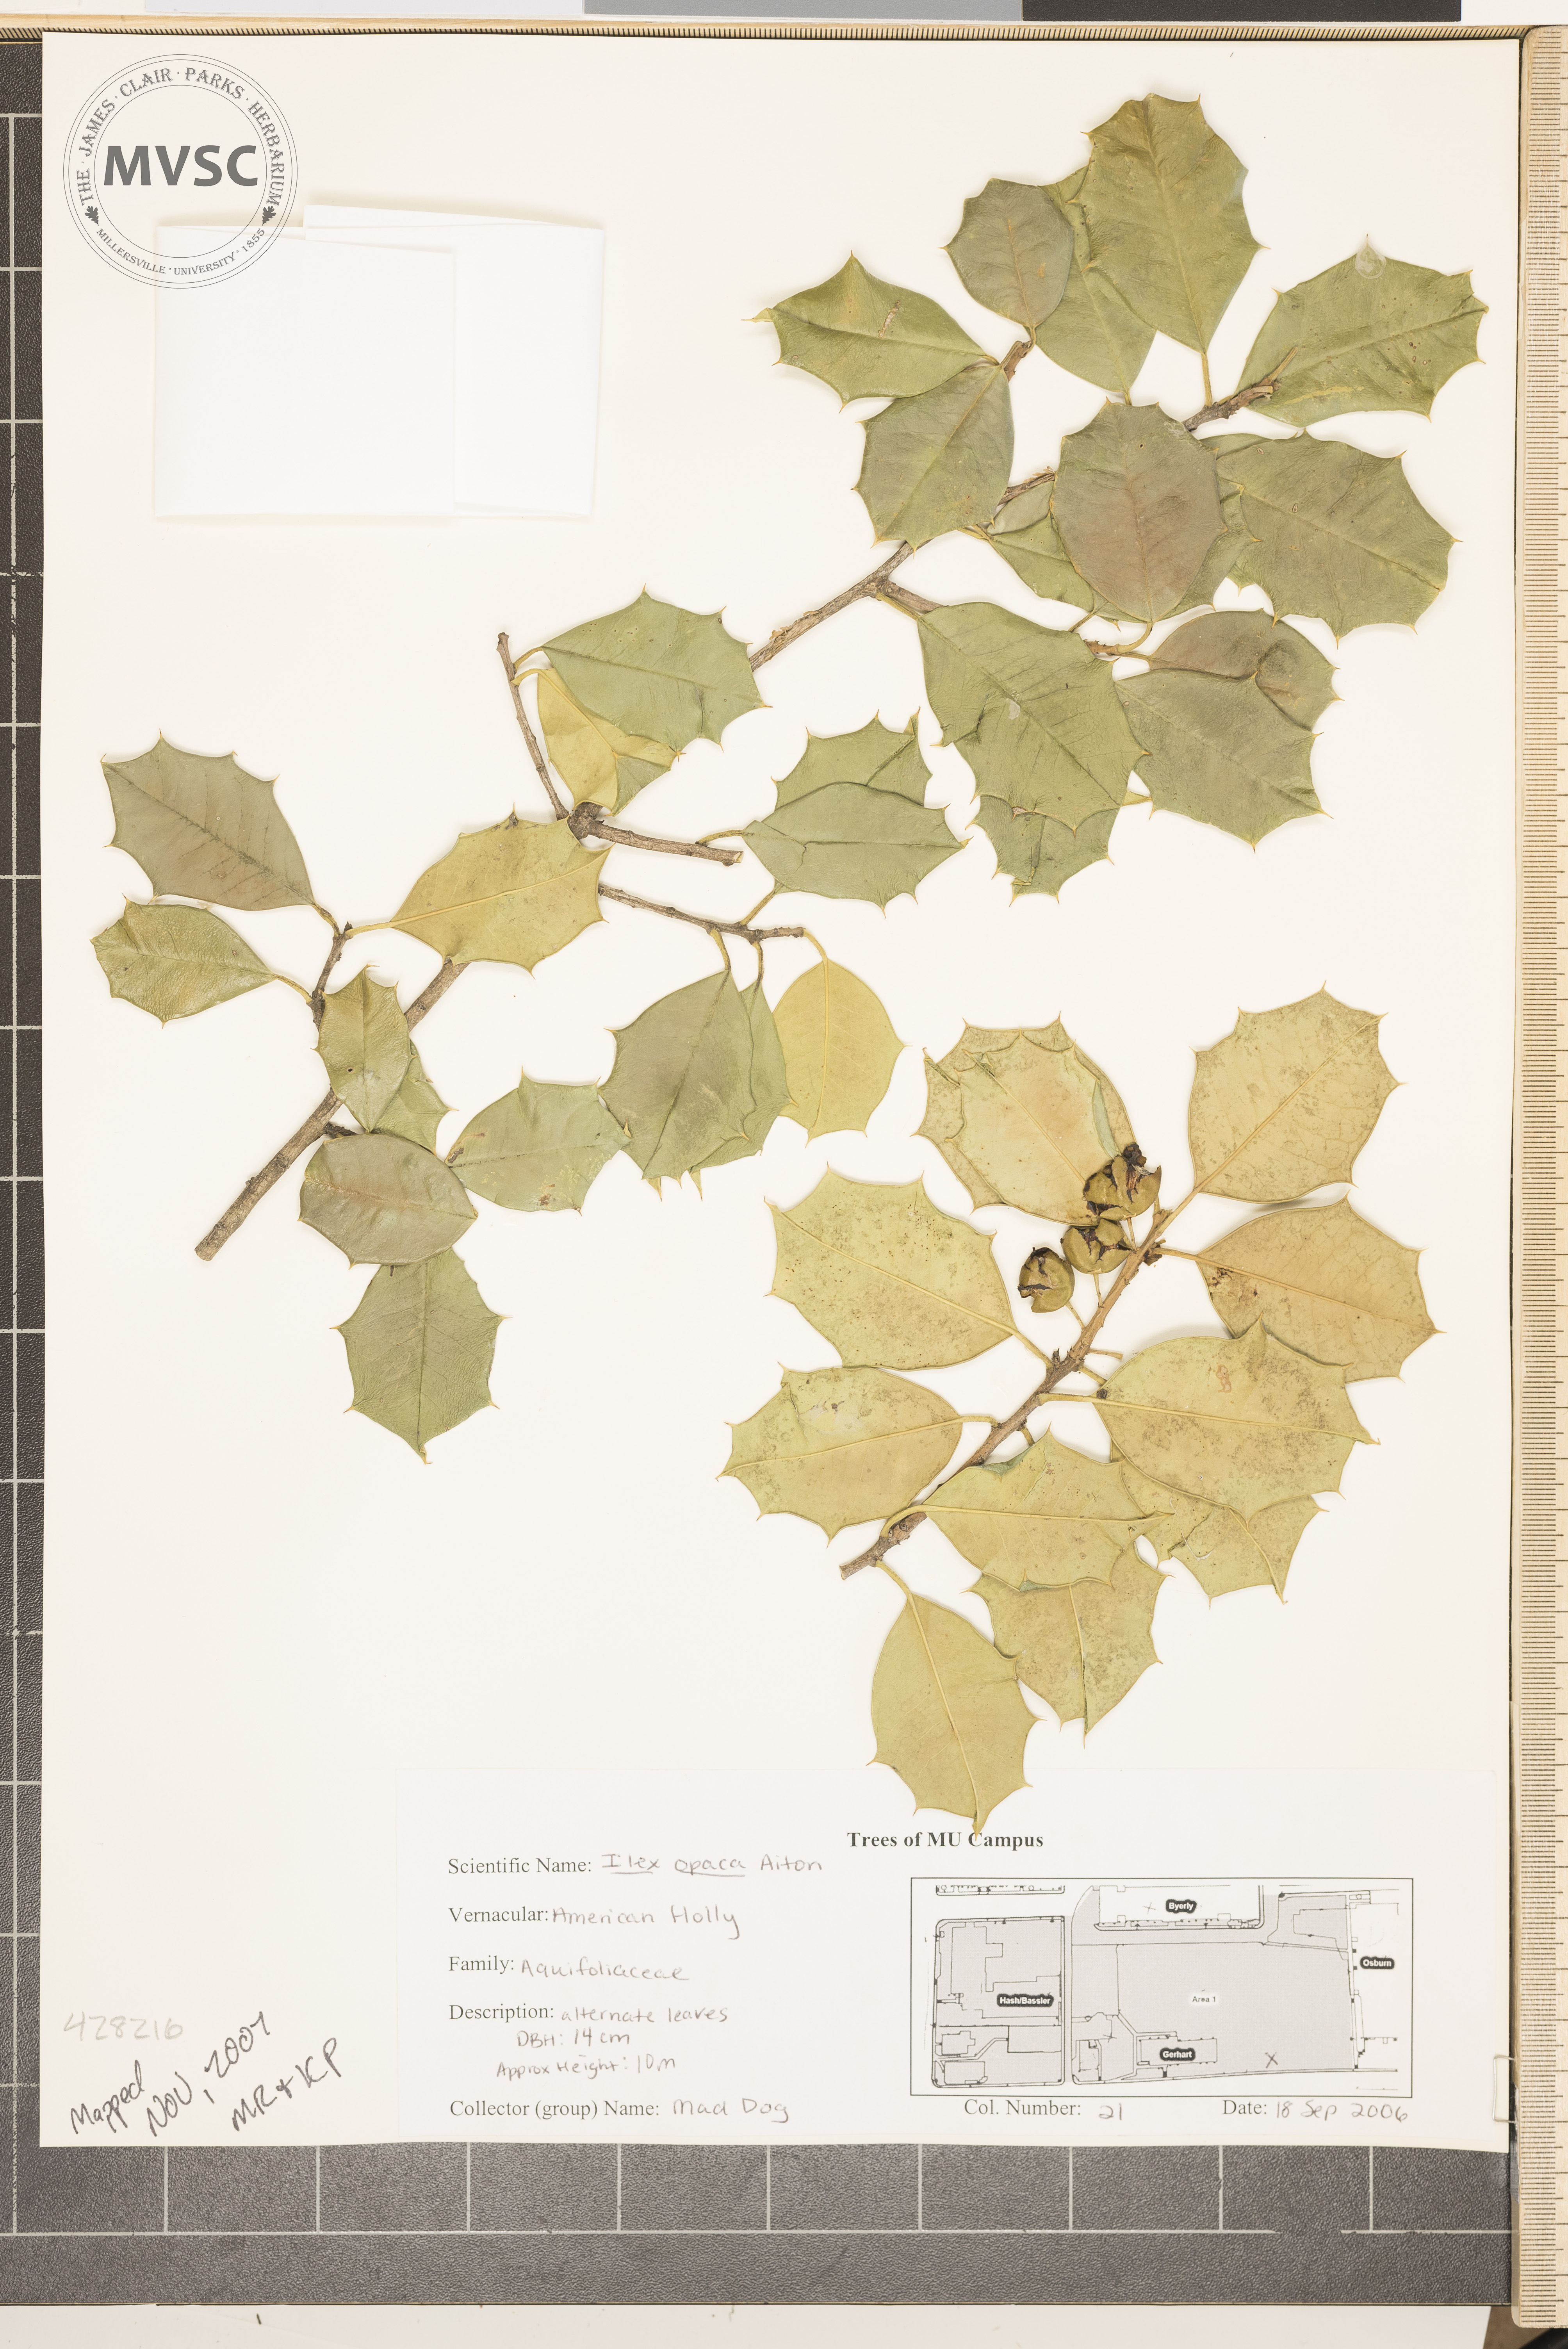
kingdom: Plantae
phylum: Tracheophyta
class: Magnoliopsida
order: Aquifoliales
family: Aquifoliaceae
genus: Ilex
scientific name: Ilex opaca
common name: American Holly
